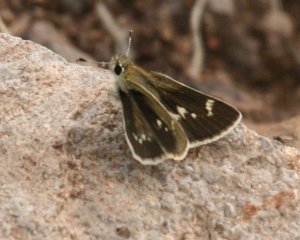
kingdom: Animalia
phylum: Arthropoda
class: Insecta
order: Lepidoptera
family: Hesperiidae
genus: Mastor
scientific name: Mastor nereus
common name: Slaty Roadside-Skipper
